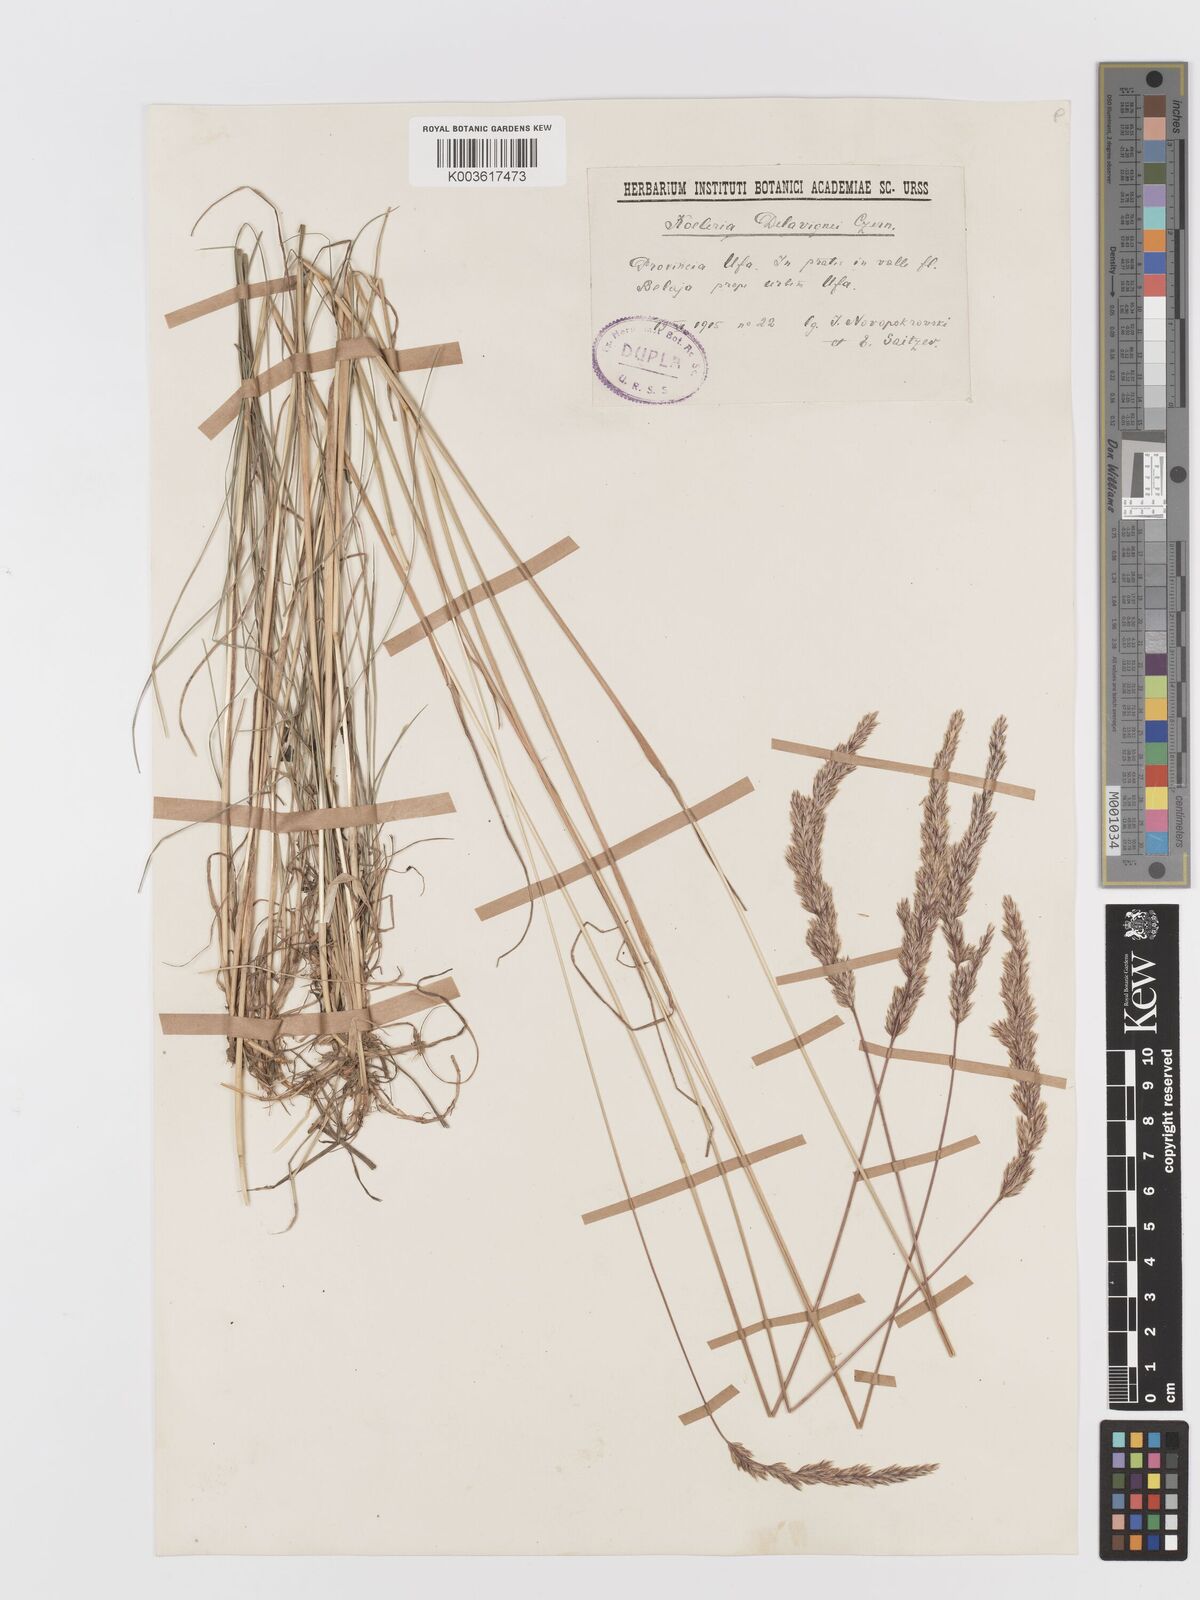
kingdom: Plantae
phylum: Tracheophyta
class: Liliopsida
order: Poales
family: Poaceae
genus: Koeleria
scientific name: Koeleria delavignei
